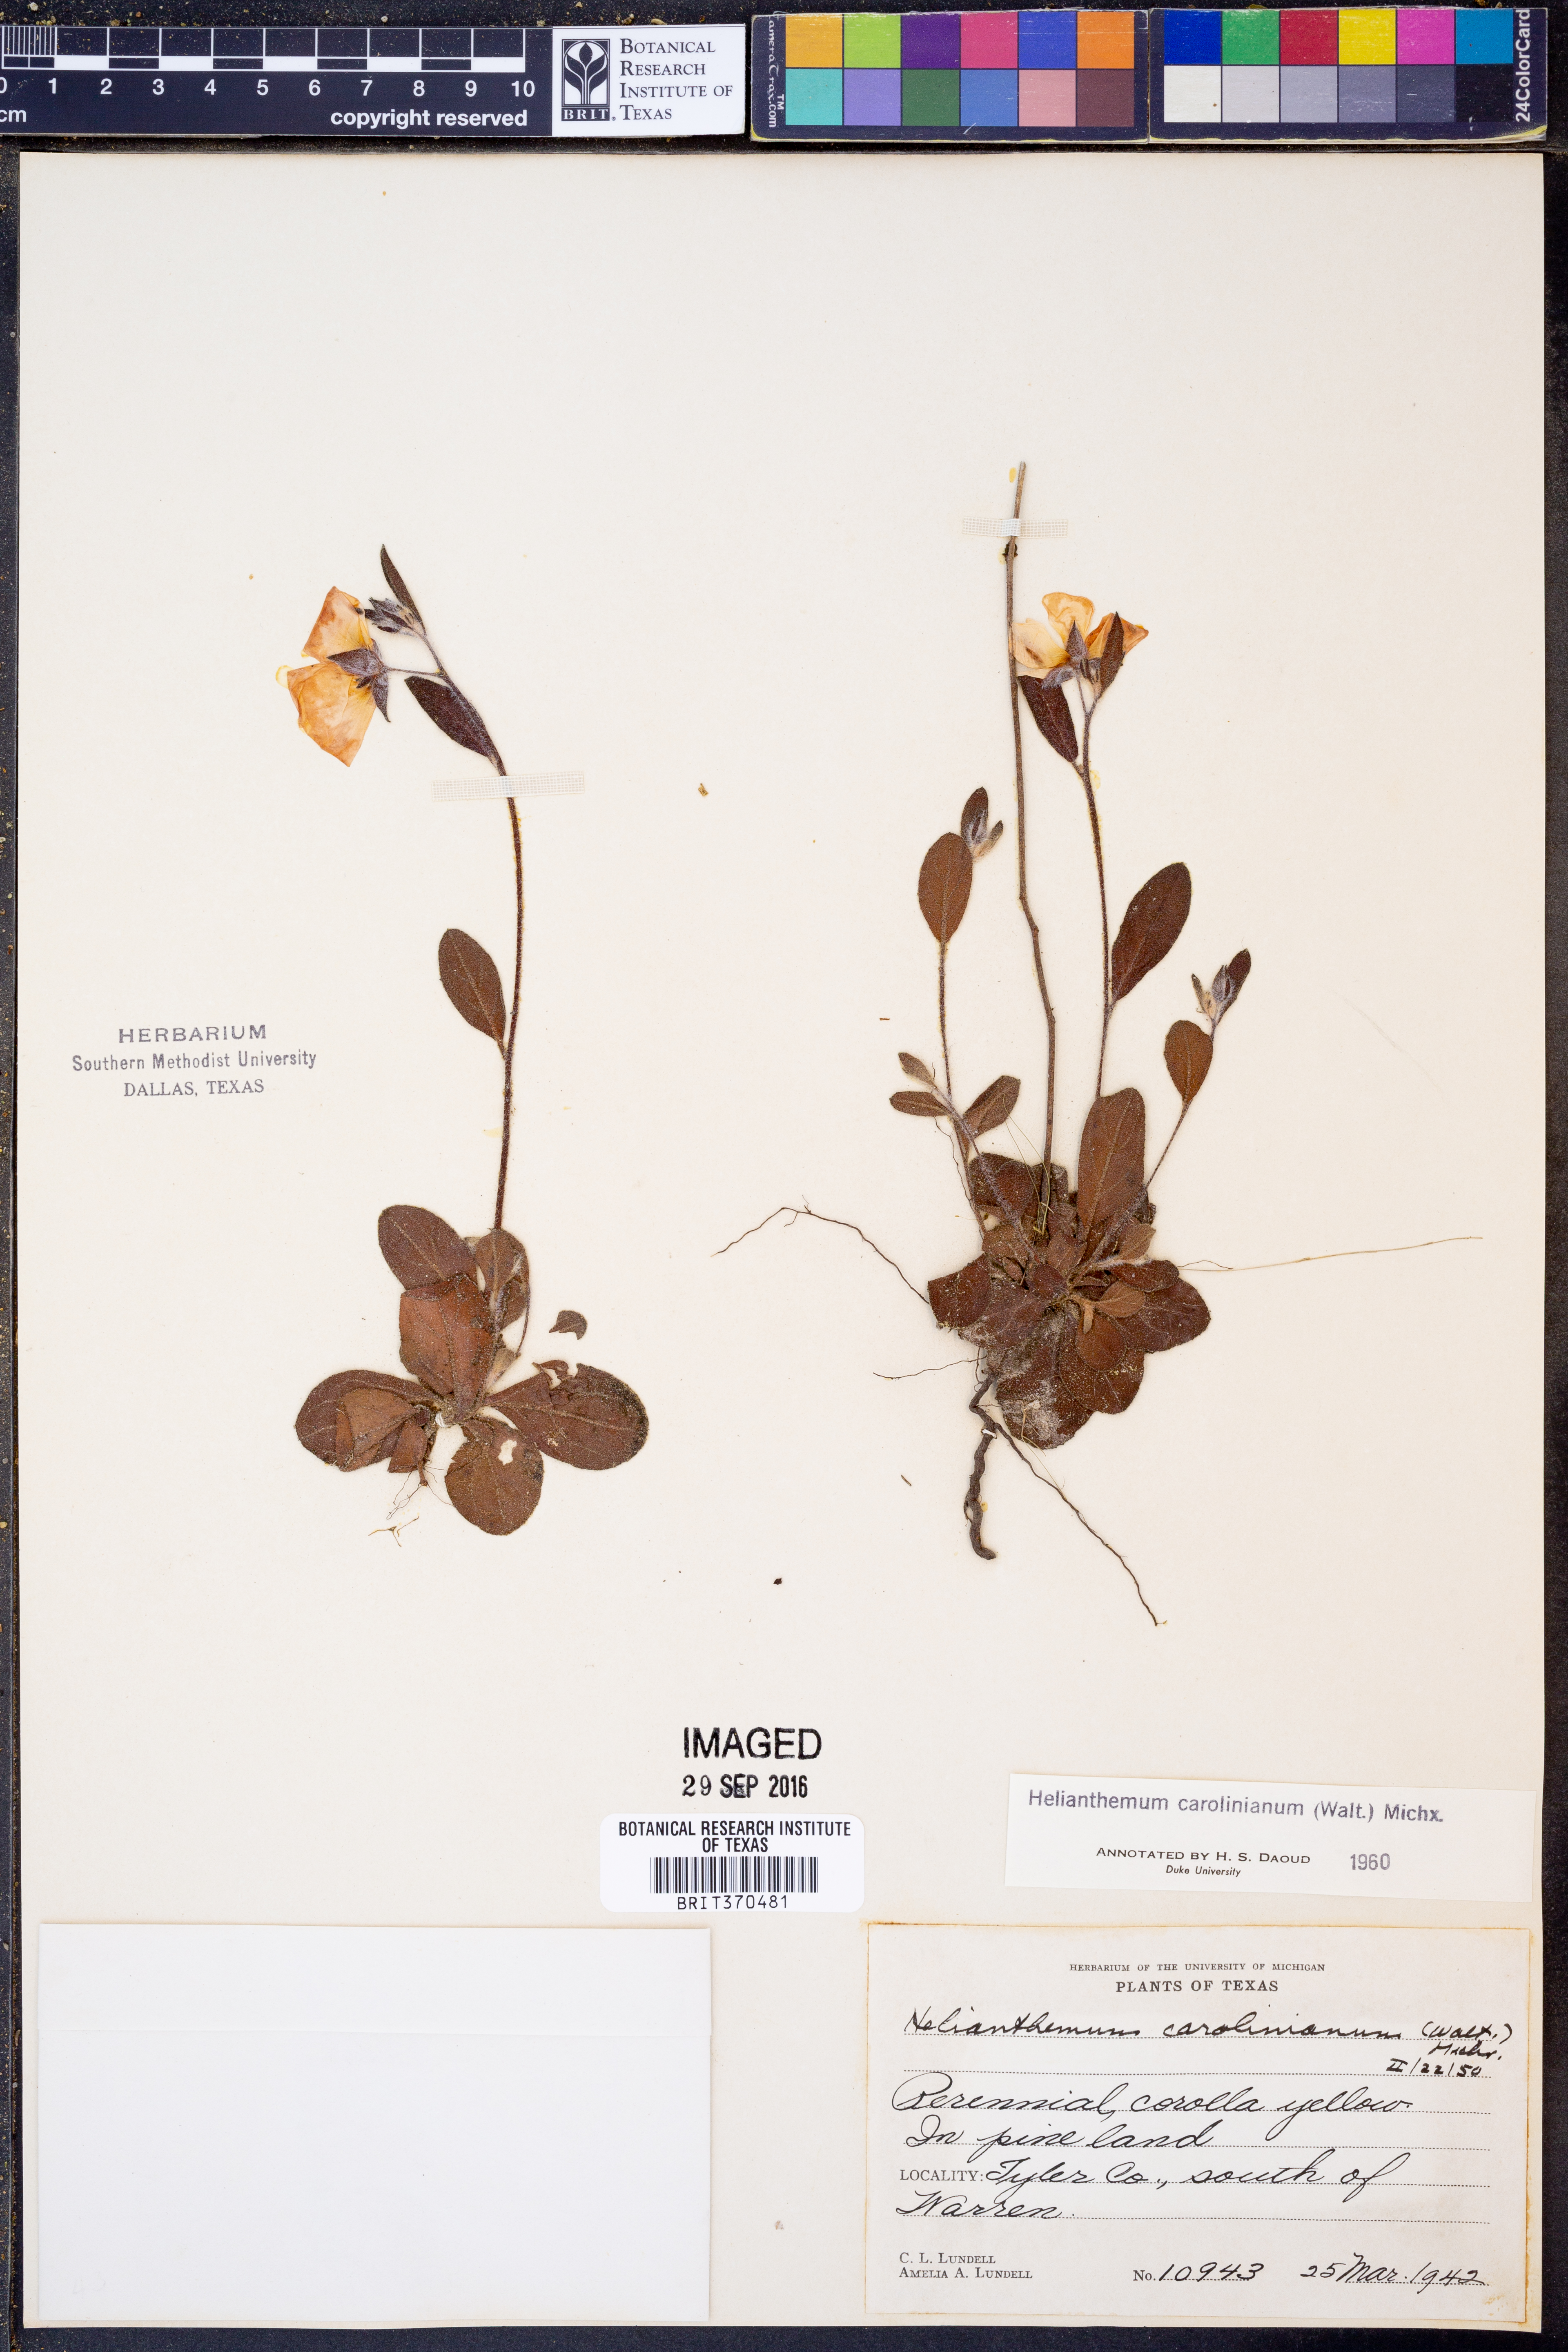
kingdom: Plantae
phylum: Tracheophyta
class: Magnoliopsida
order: Malvales
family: Cistaceae
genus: Crocanthemum
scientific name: Crocanthemum carolinianum
